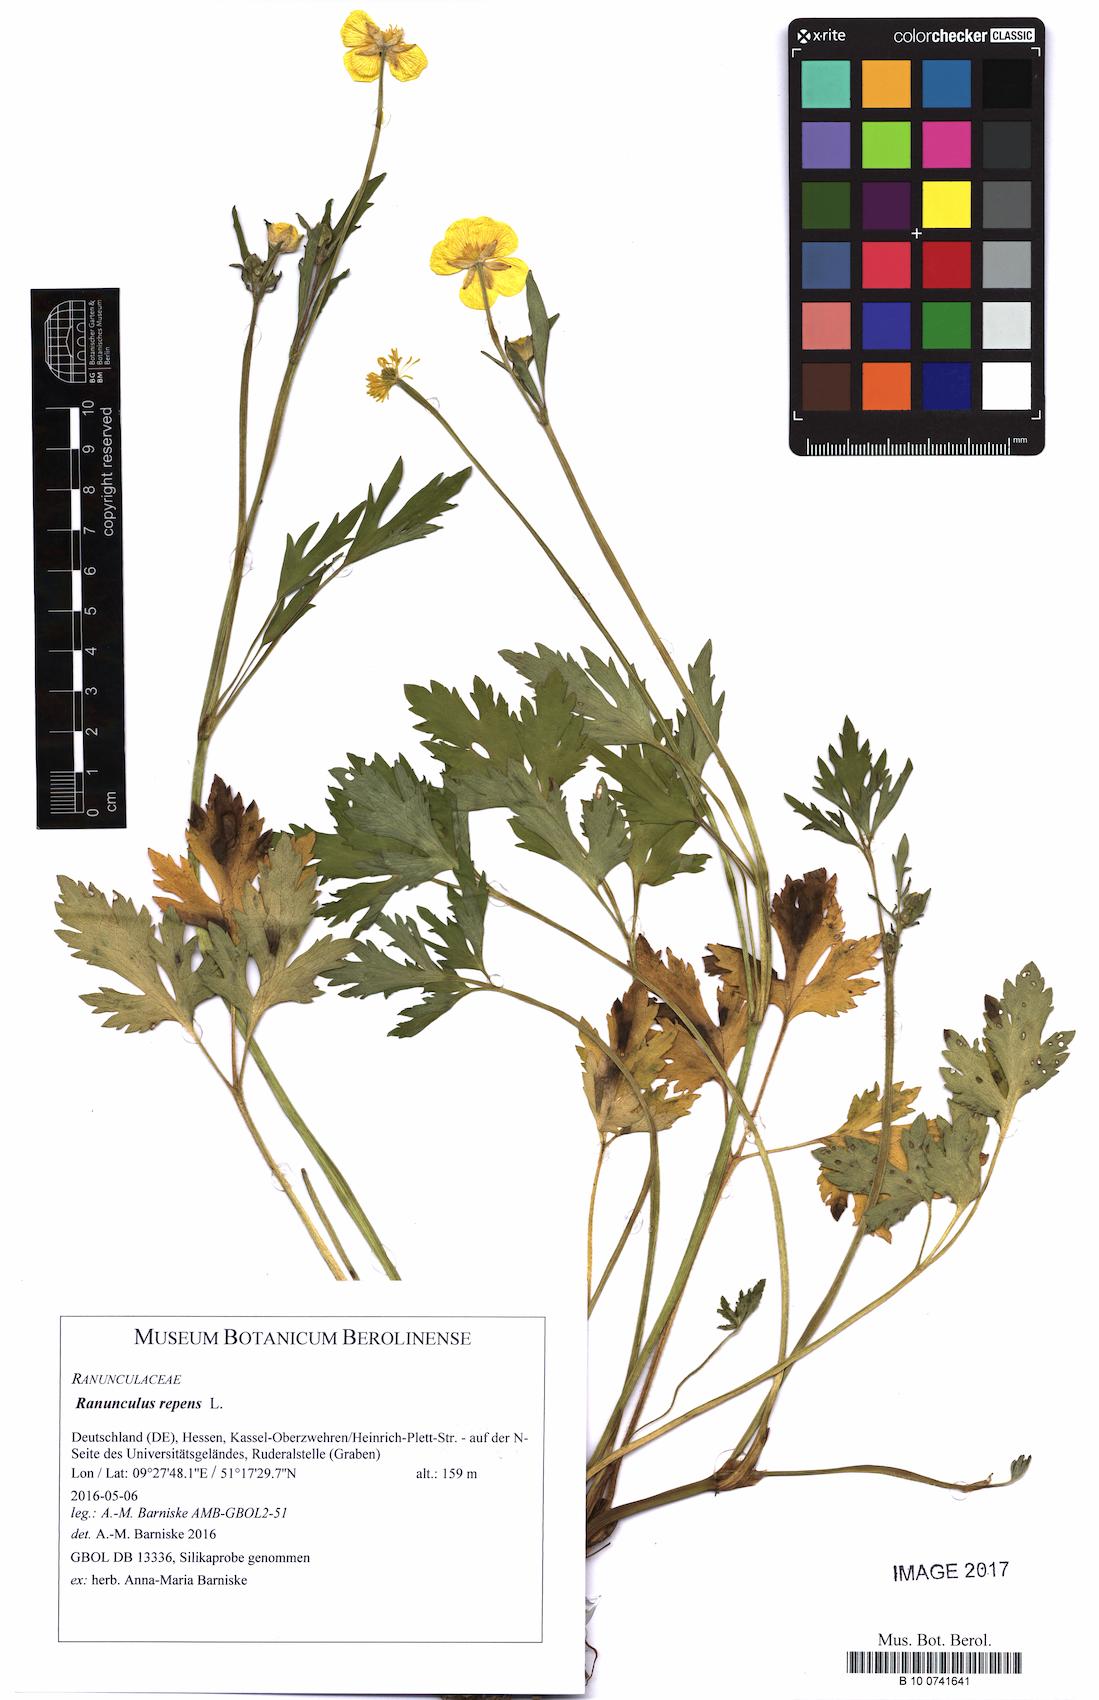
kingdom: Plantae
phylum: Tracheophyta
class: Magnoliopsida
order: Ranunculales
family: Ranunculaceae
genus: Ranunculus
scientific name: Ranunculus repens
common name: Creeping buttercup
